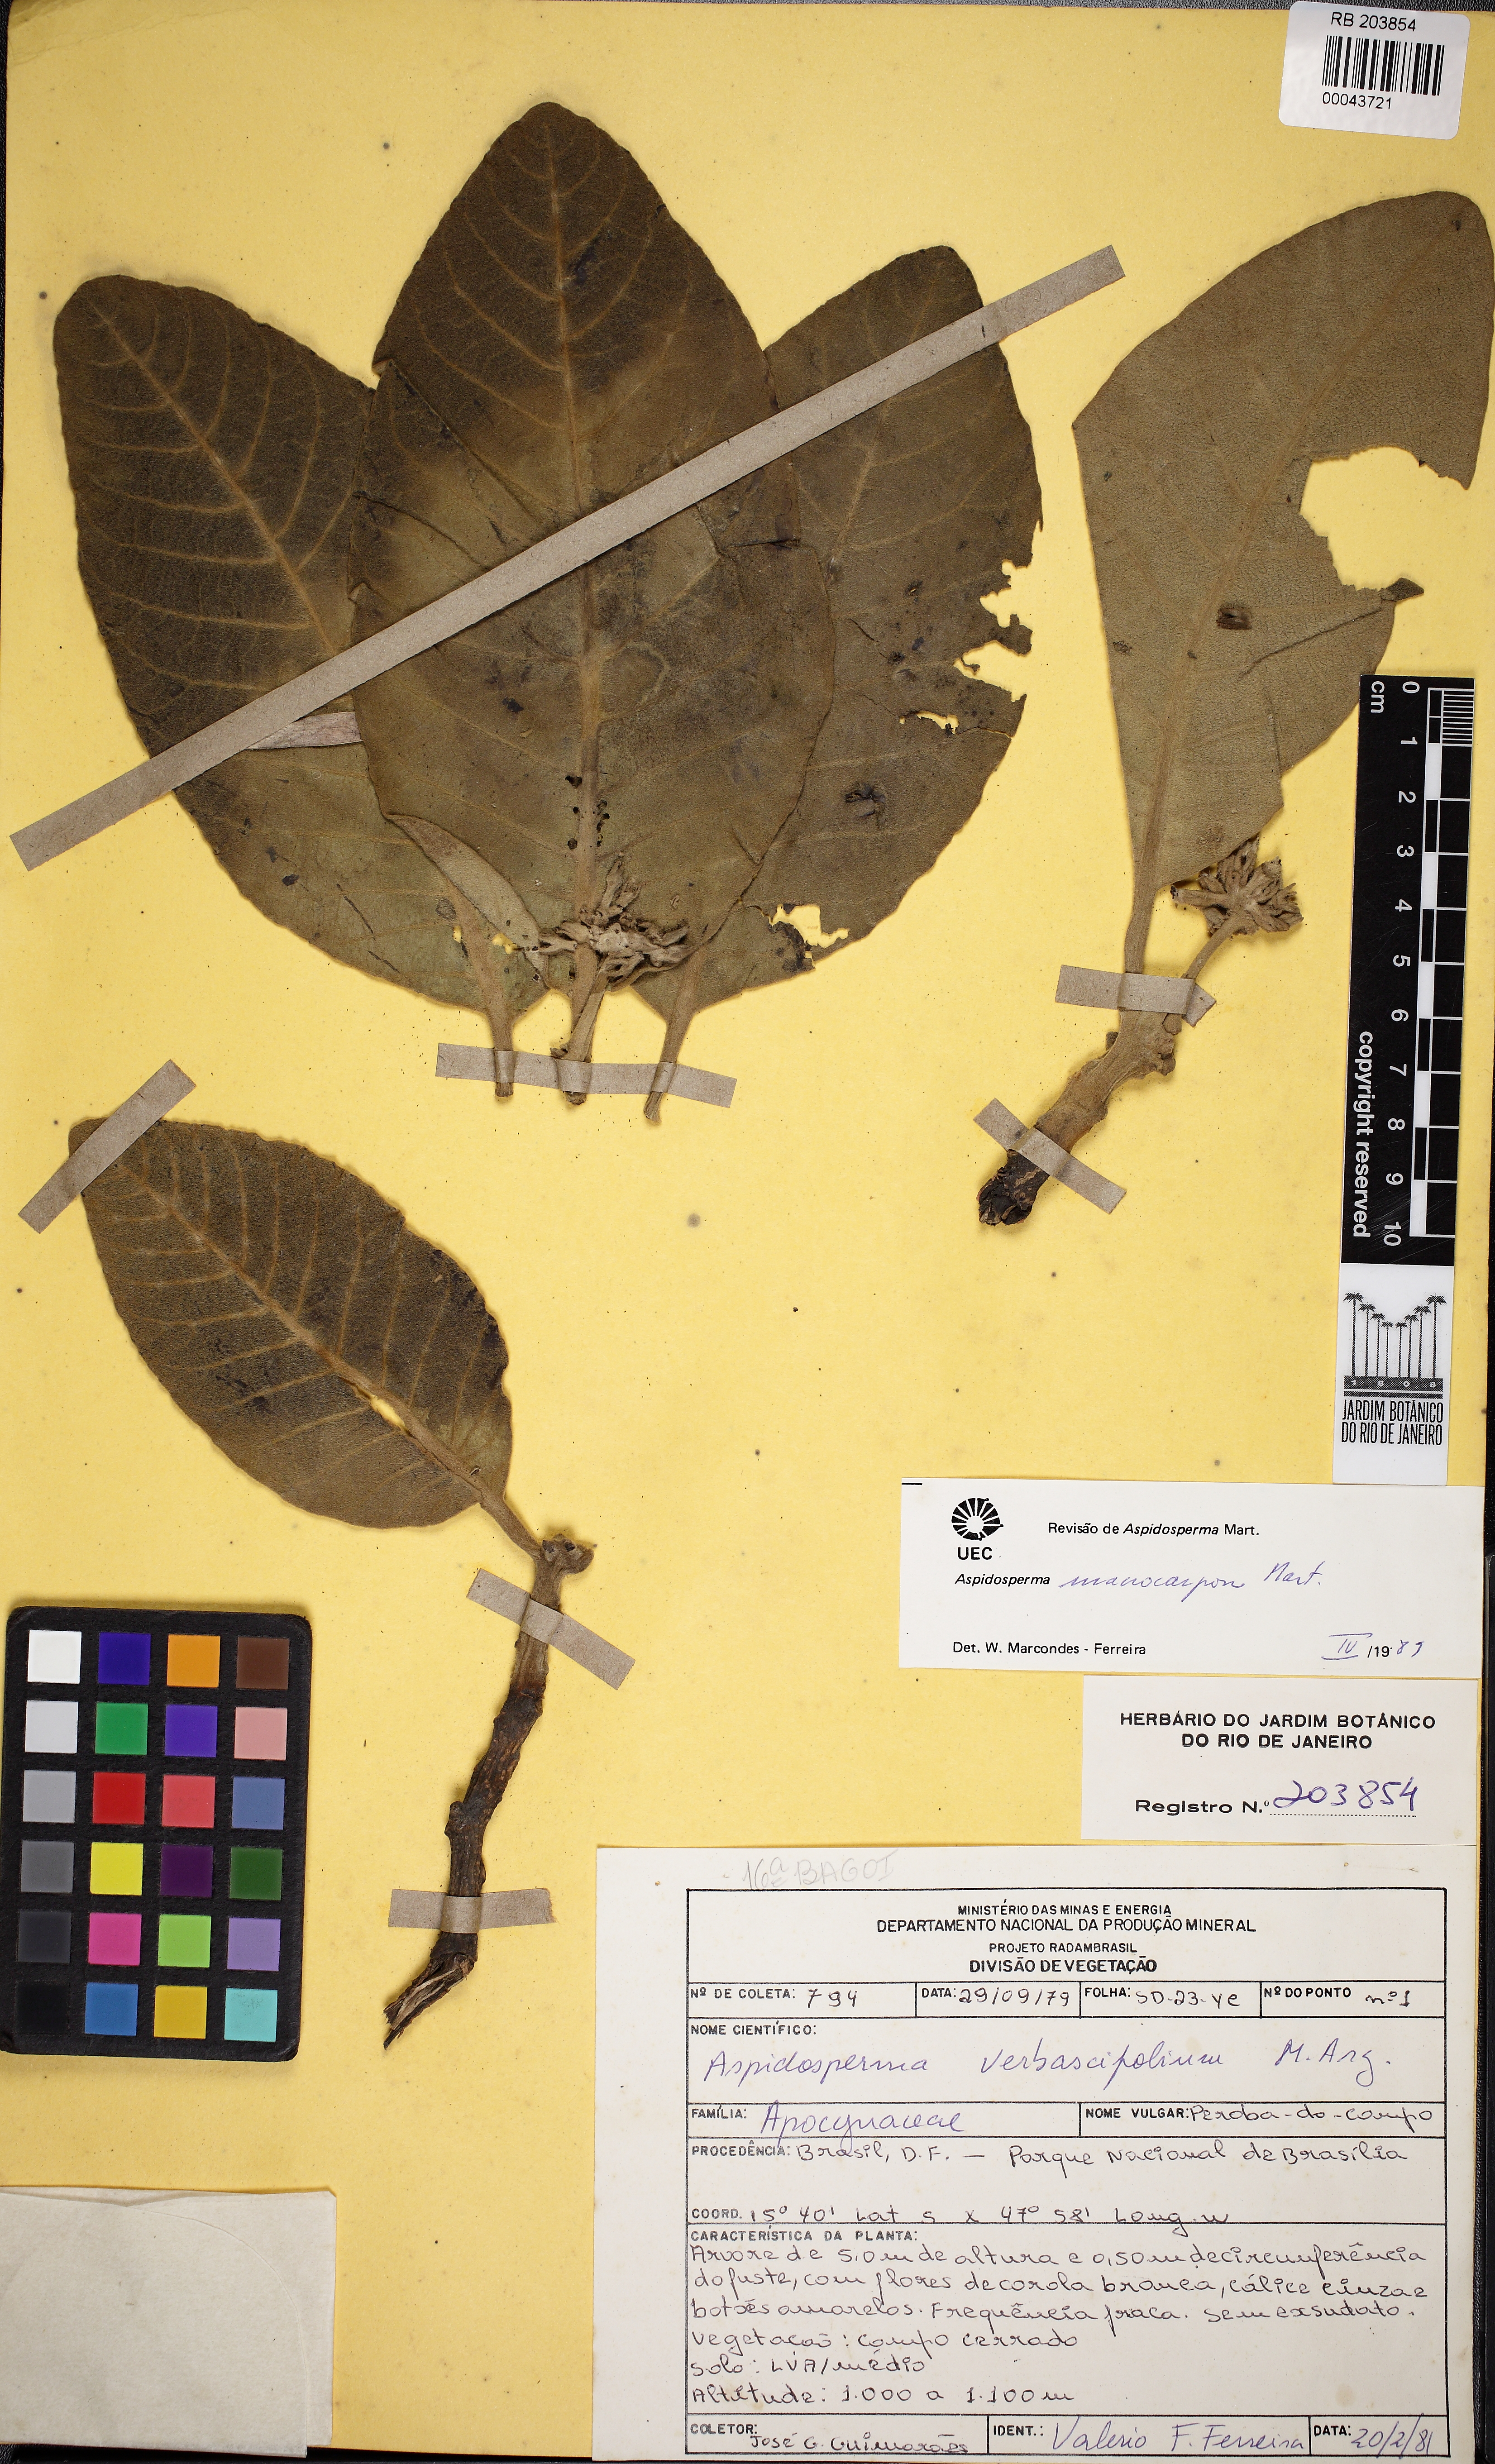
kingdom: Plantae
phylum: Tracheophyta
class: Magnoliopsida
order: Gentianales
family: Apocynaceae
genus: Aspidosperma
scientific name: Aspidosperma macrocarpon
